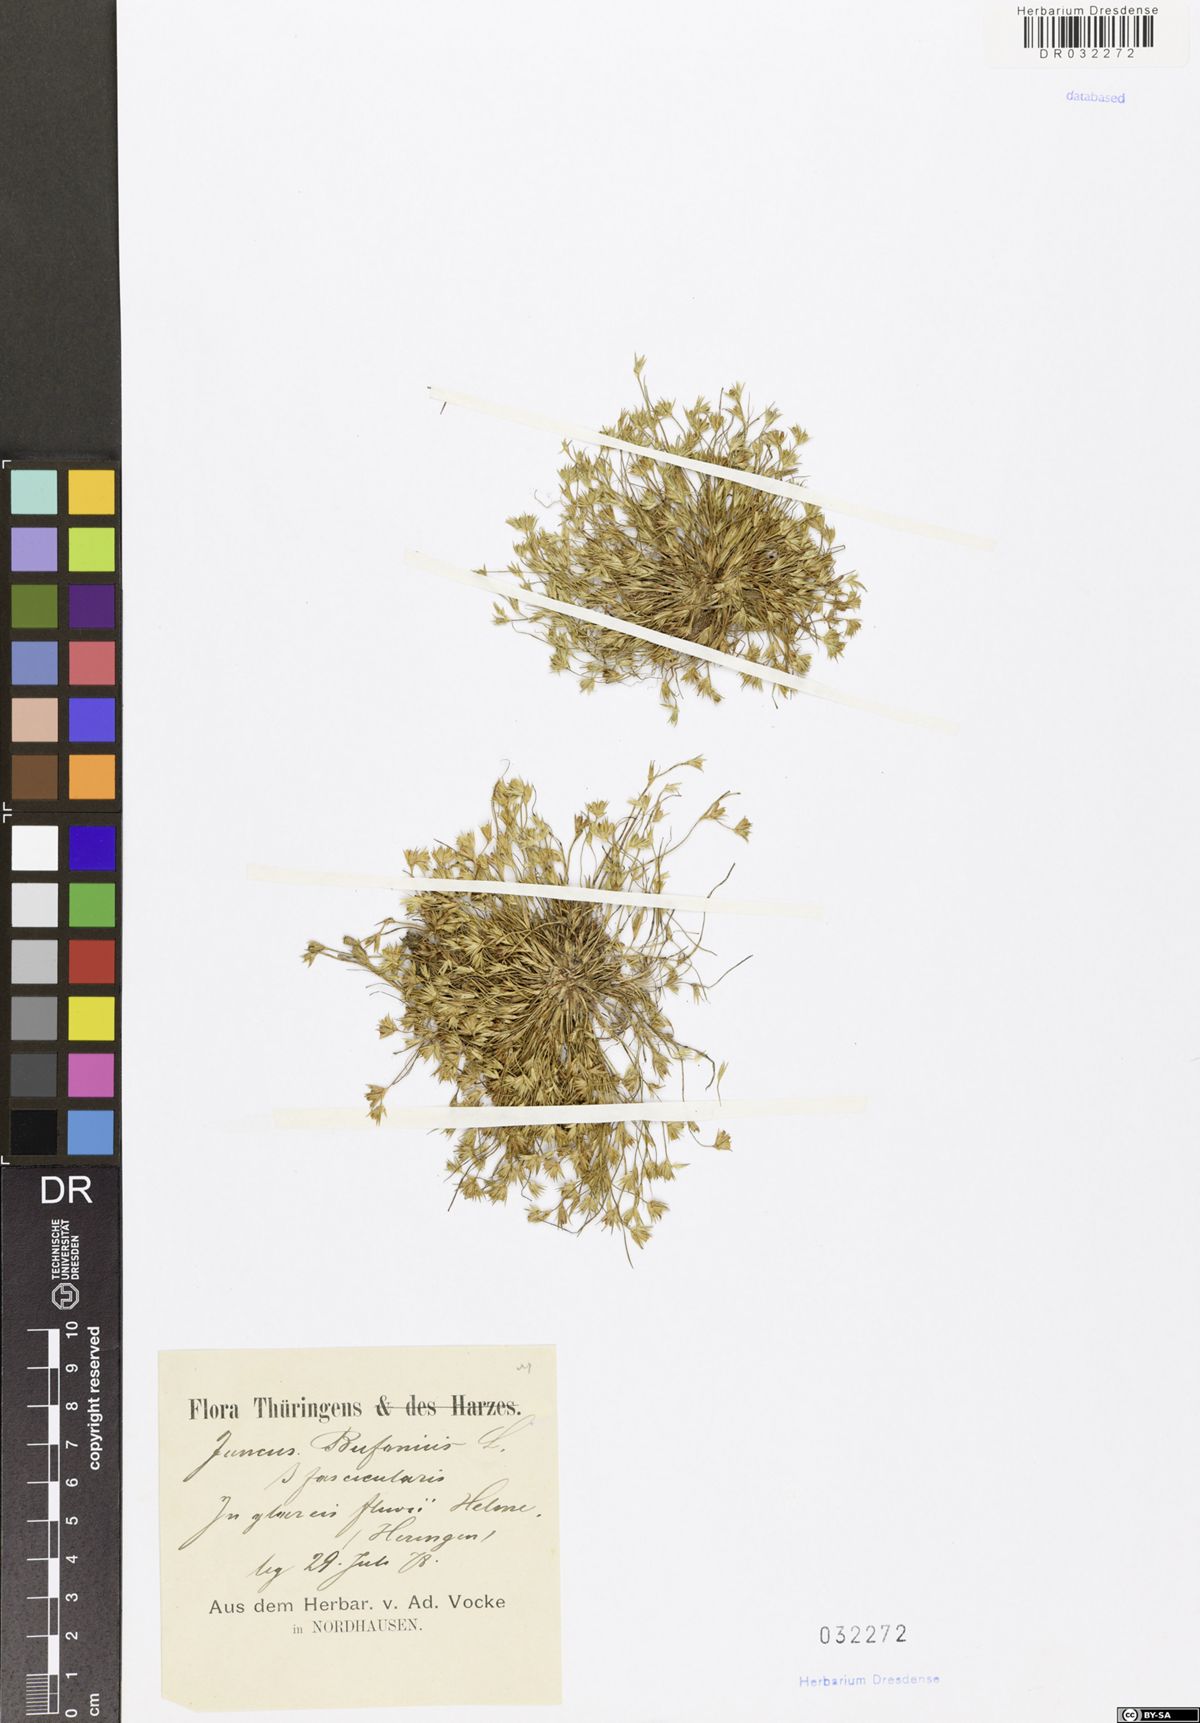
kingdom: Plantae
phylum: Tracheophyta
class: Liliopsida
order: Poales
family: Juncaceae
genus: Juncus
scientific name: Juncus bufonius
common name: Toad rush
